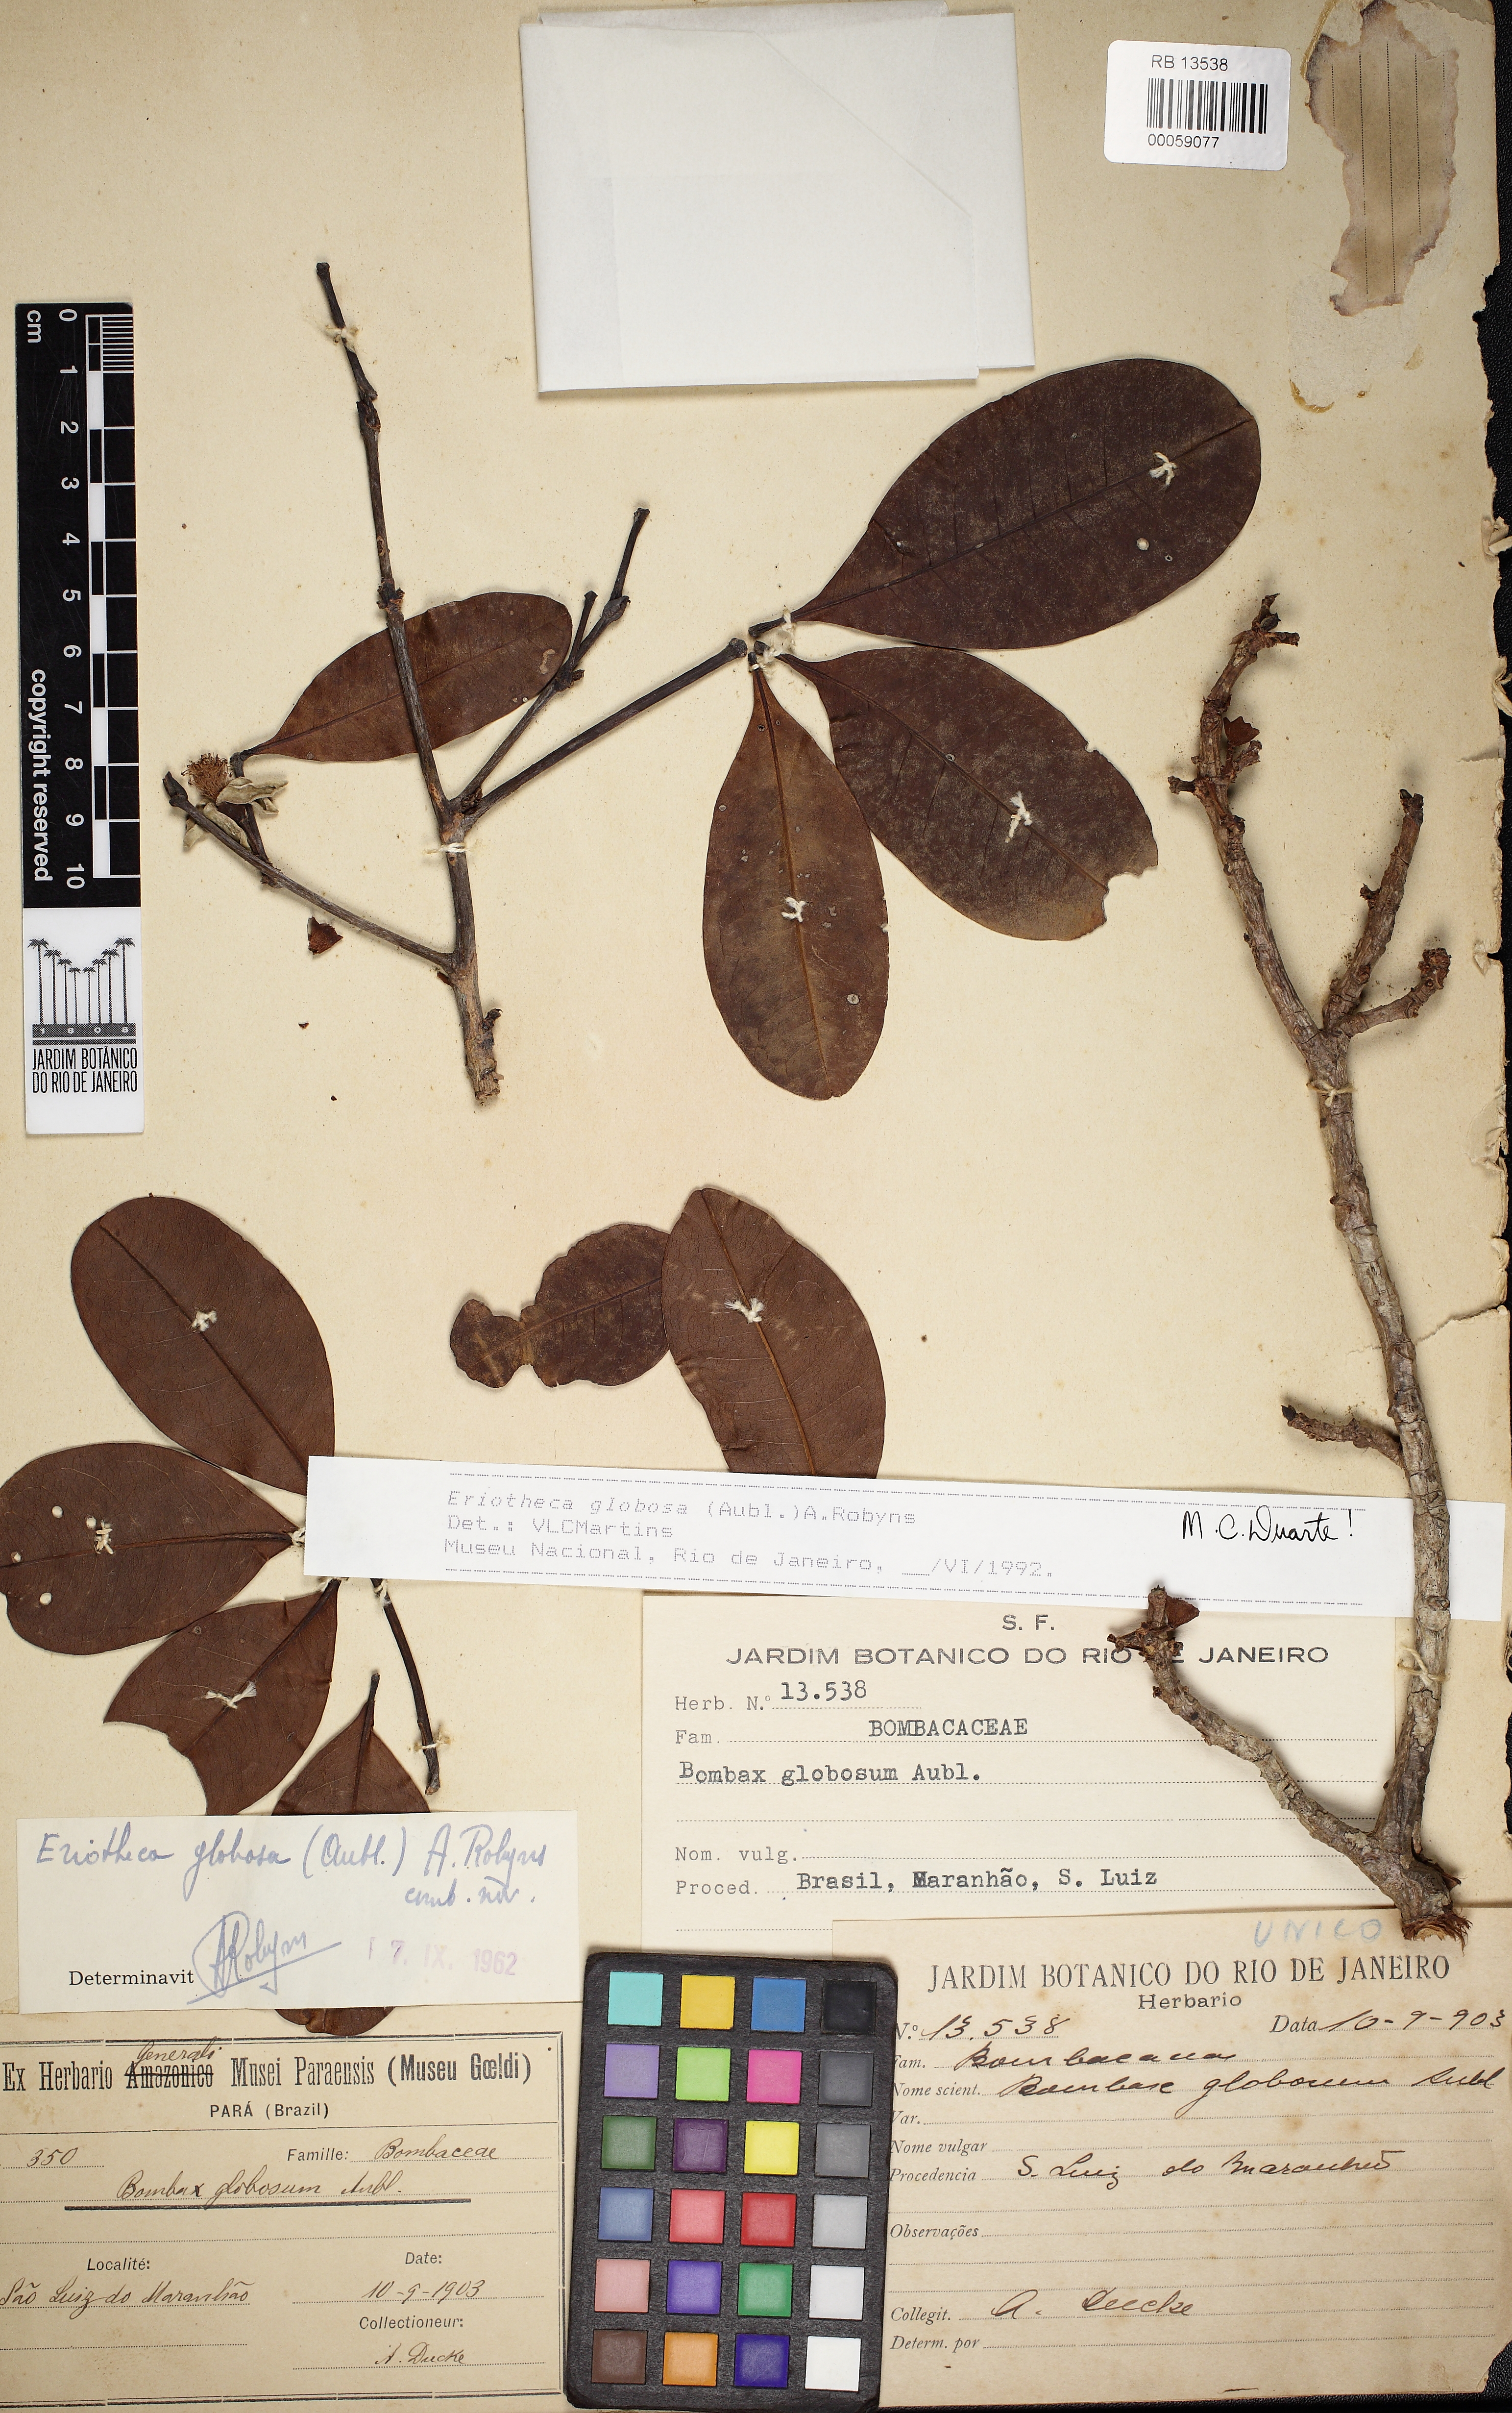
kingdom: Plantae
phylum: Tracheophyta
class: Magnoliopsida
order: Malvales
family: Malvaceae
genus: Eriotheca
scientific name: Eriotheca globosa
